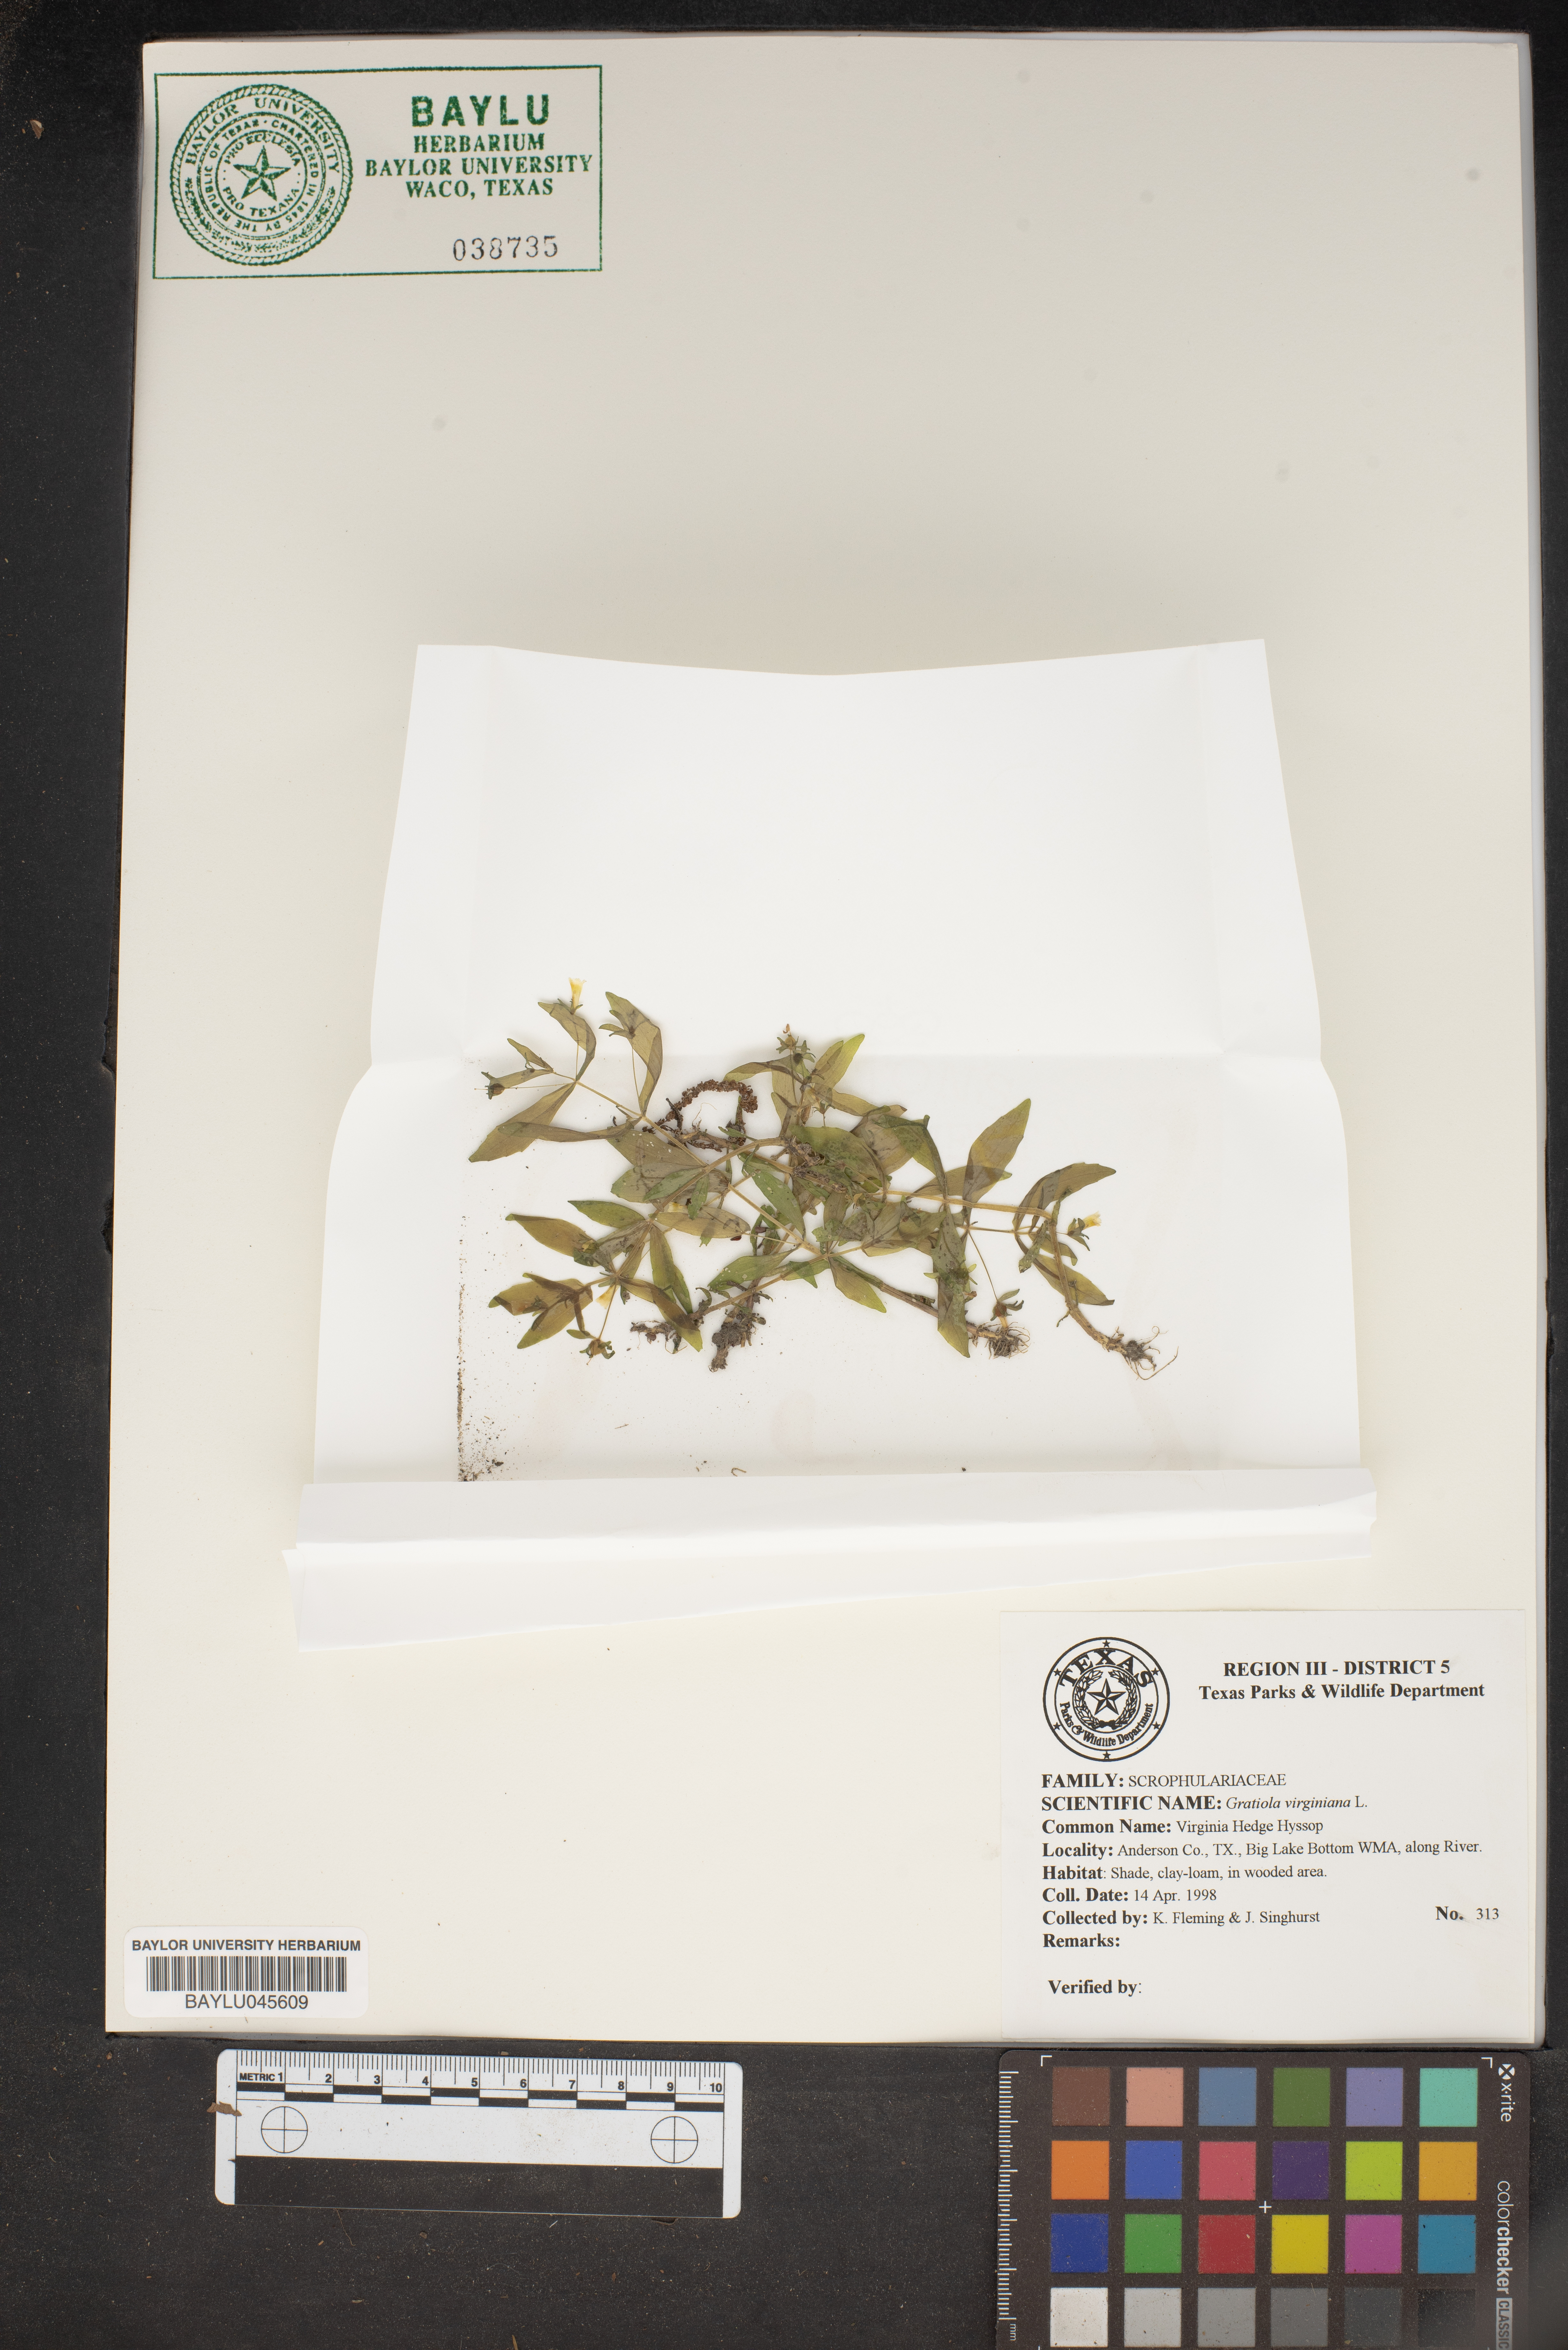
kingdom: Plantae
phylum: Tracheophyta
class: Magnoliopsida
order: Lamiales
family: Plantaginaceae
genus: Gratiola
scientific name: Gratiola virginiana
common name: Roundfruit hedgehyssop
